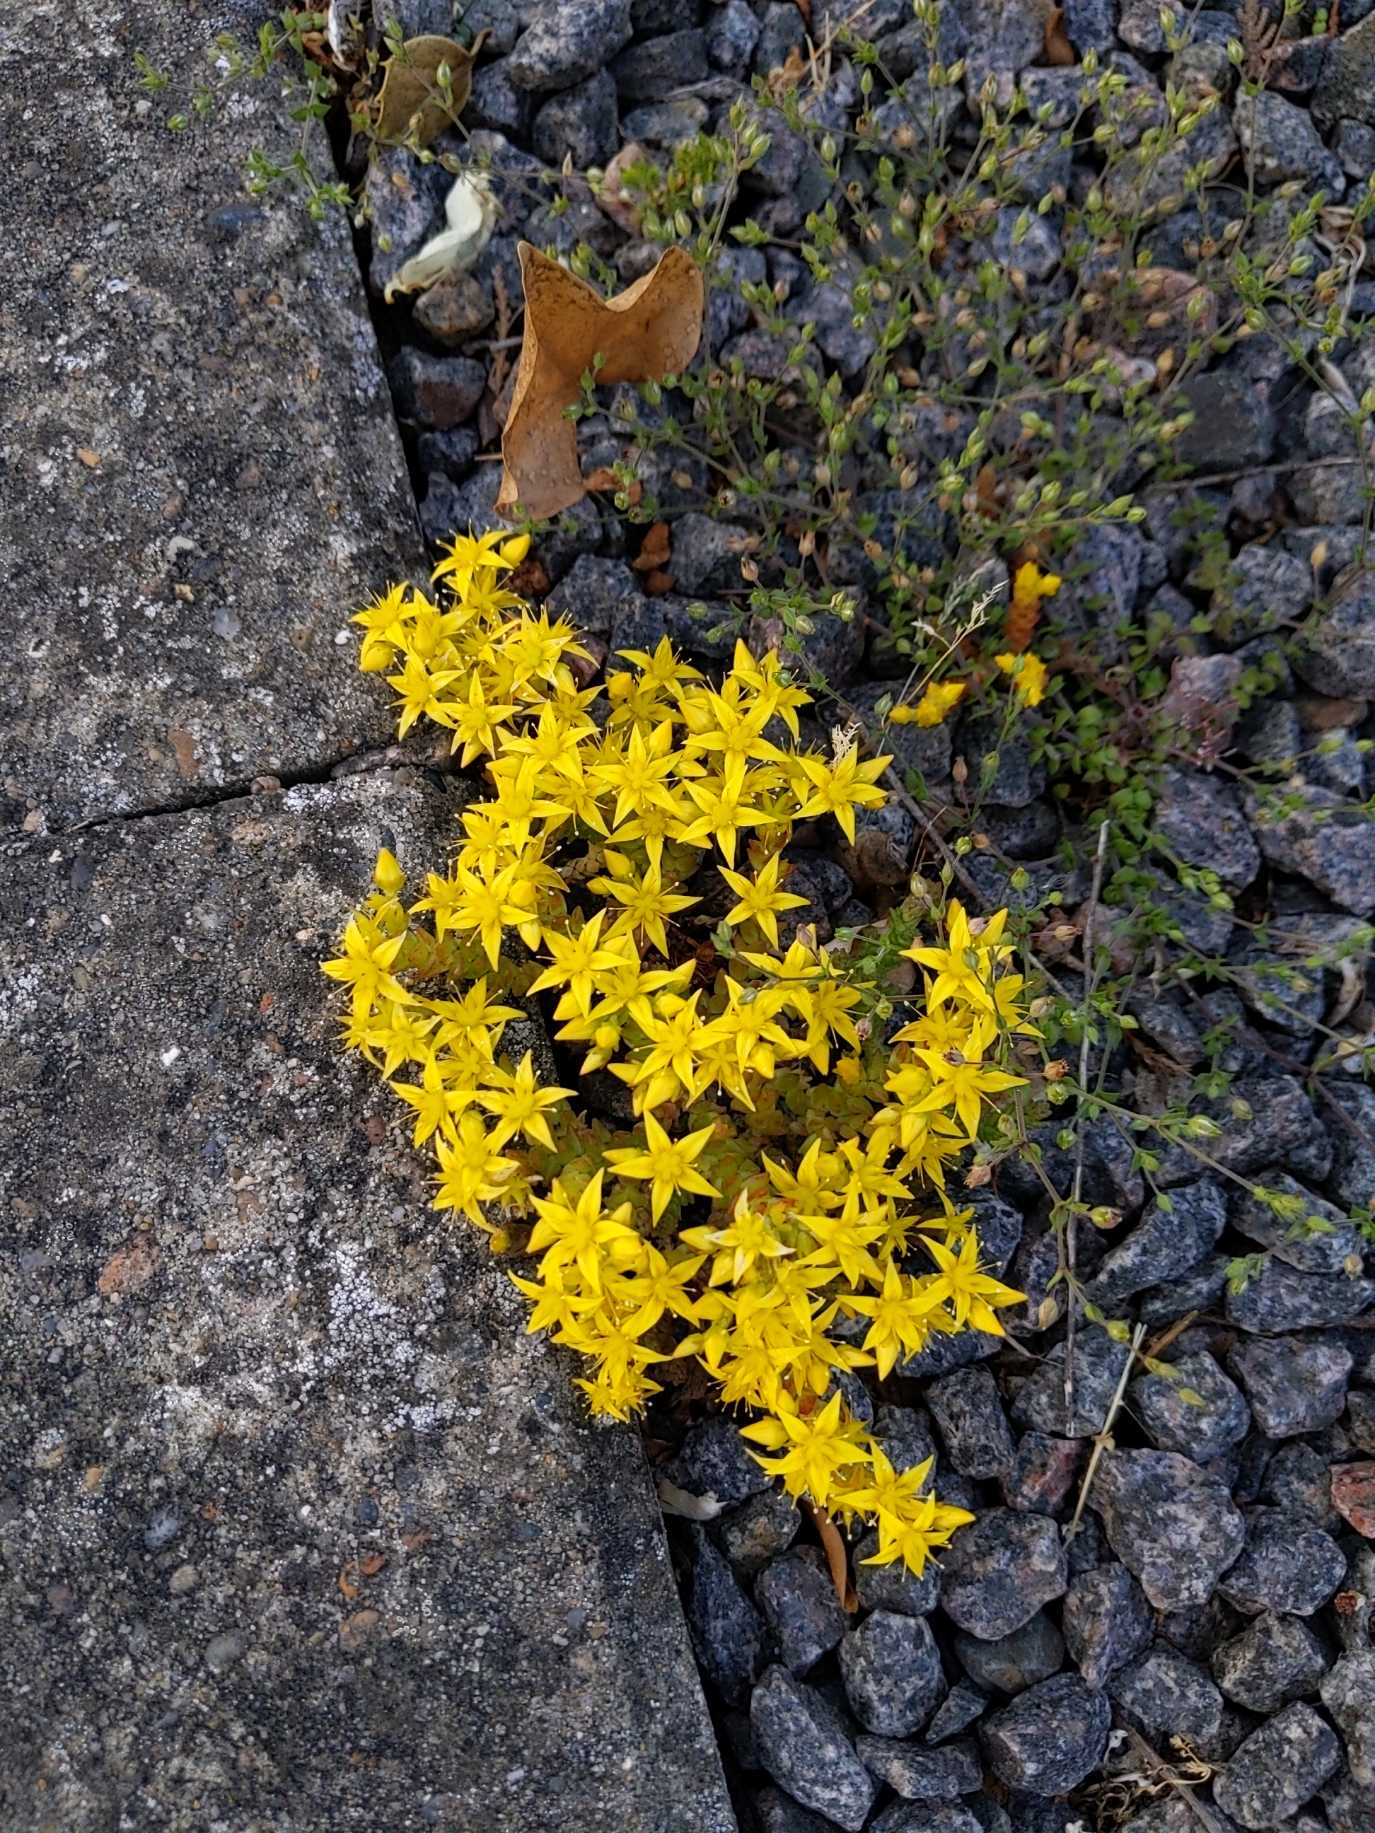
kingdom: Plantae
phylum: Tracheophyta
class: Magnoliopsida
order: Saxifragales
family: Crassulaceae
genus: Sedum
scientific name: Sedum acre
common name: Bidende stenurt
